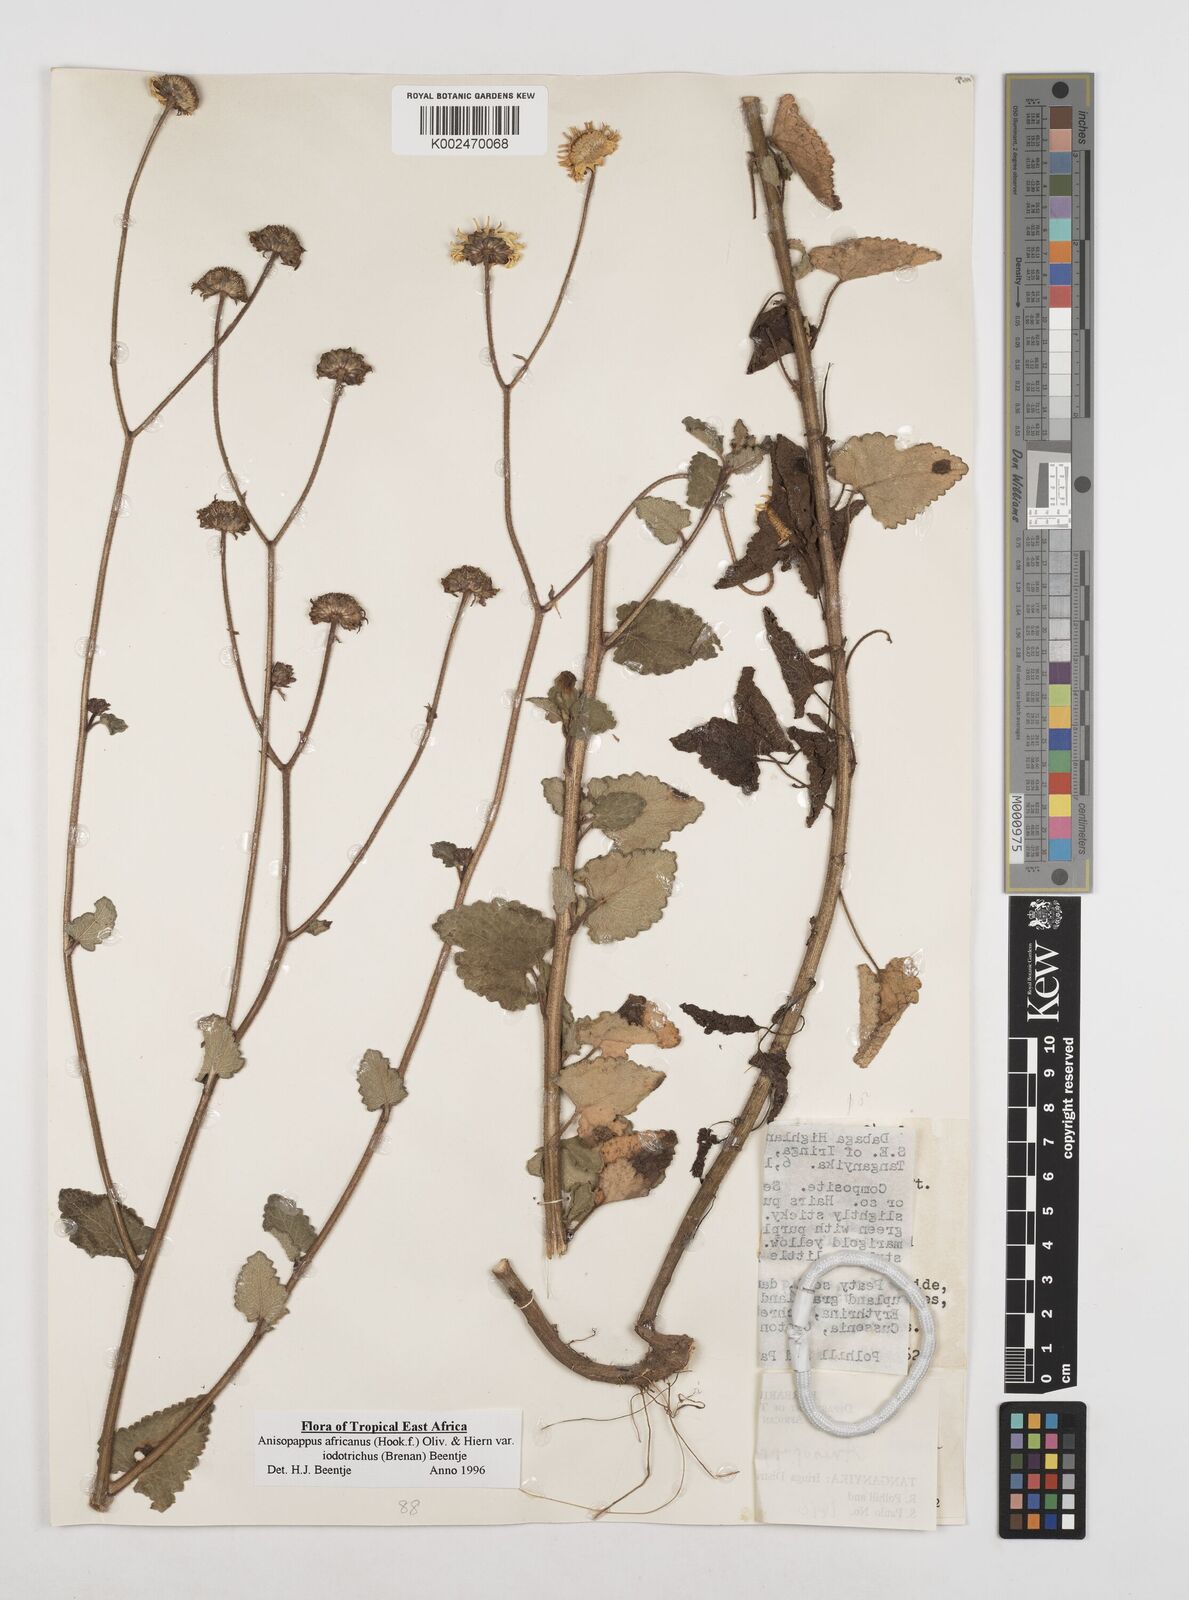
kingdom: Plantae
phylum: Tracheophyta
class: Magnoliopsida
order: Asterales
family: Asteraceae
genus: Anisopappus
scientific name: Anisopappus africanus
